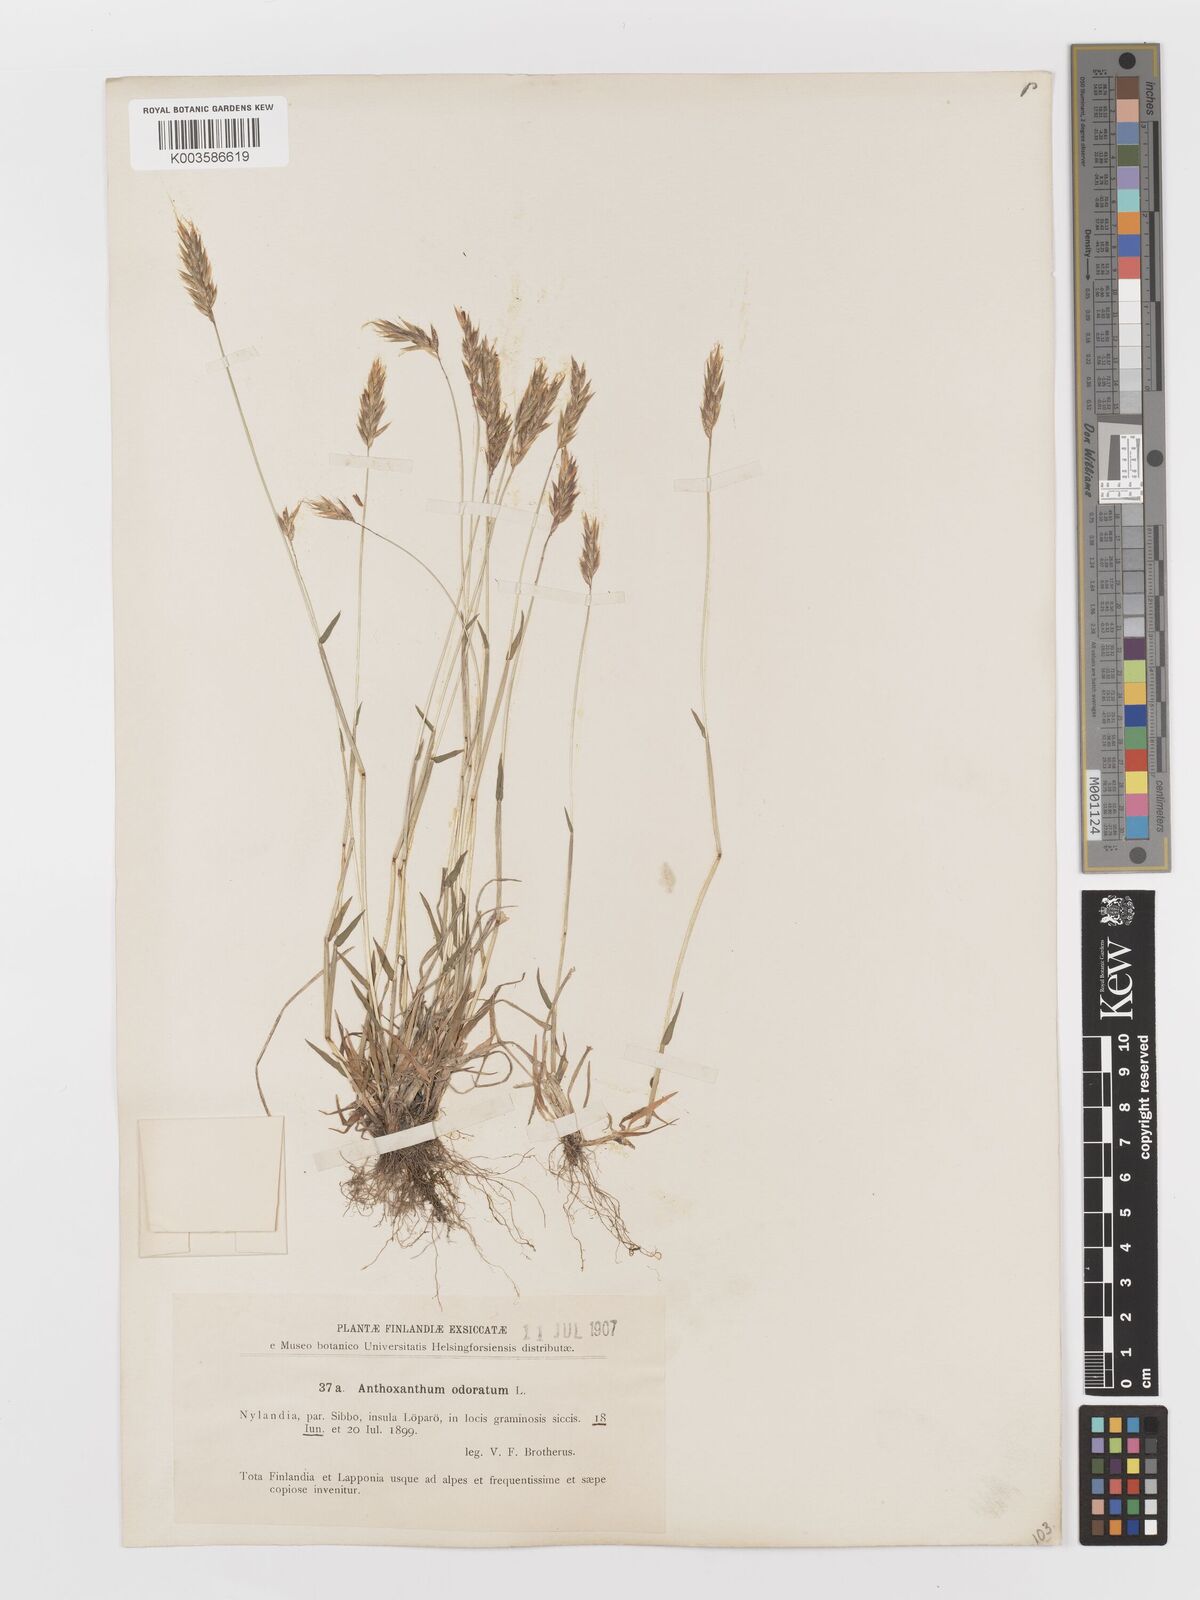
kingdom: Plantae
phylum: Tracheophyta
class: Liliopsida
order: Poales
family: Poaceae
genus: Anthoxanthum
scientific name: Anthoxanthum odoratum
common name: Sweet vernalgrass
